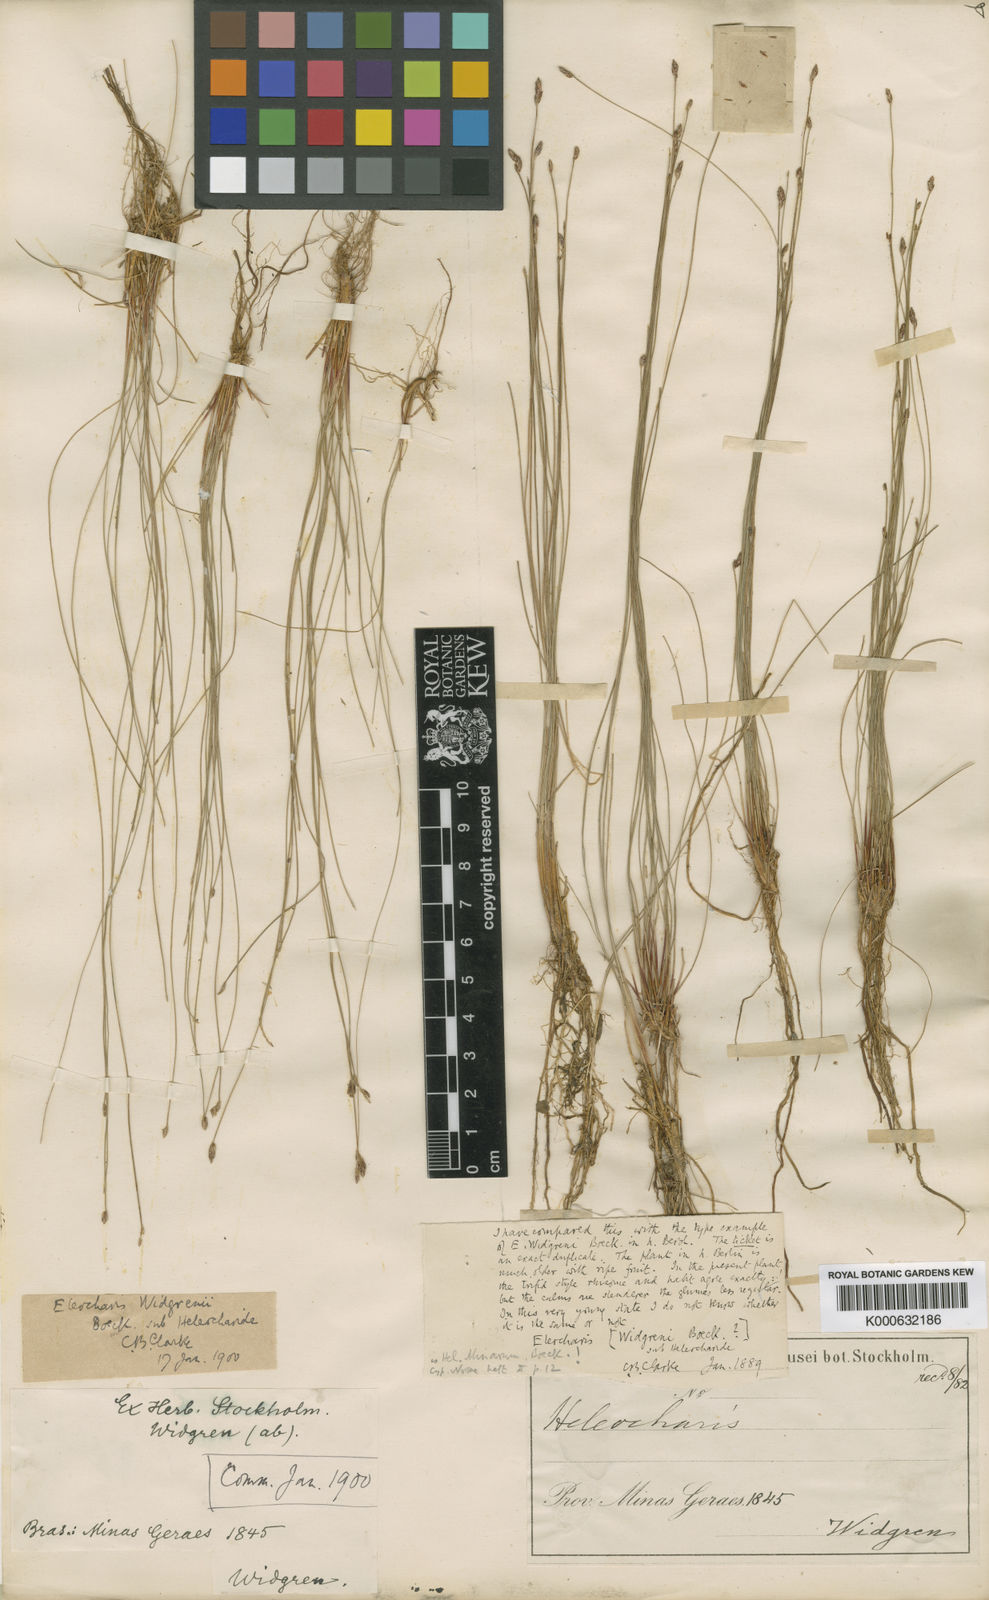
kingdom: Plantae
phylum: Tracheophyta
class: Liliopsida
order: Poales
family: Cyperaceae
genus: Eleocharis
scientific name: Eleocharis subarticulata
